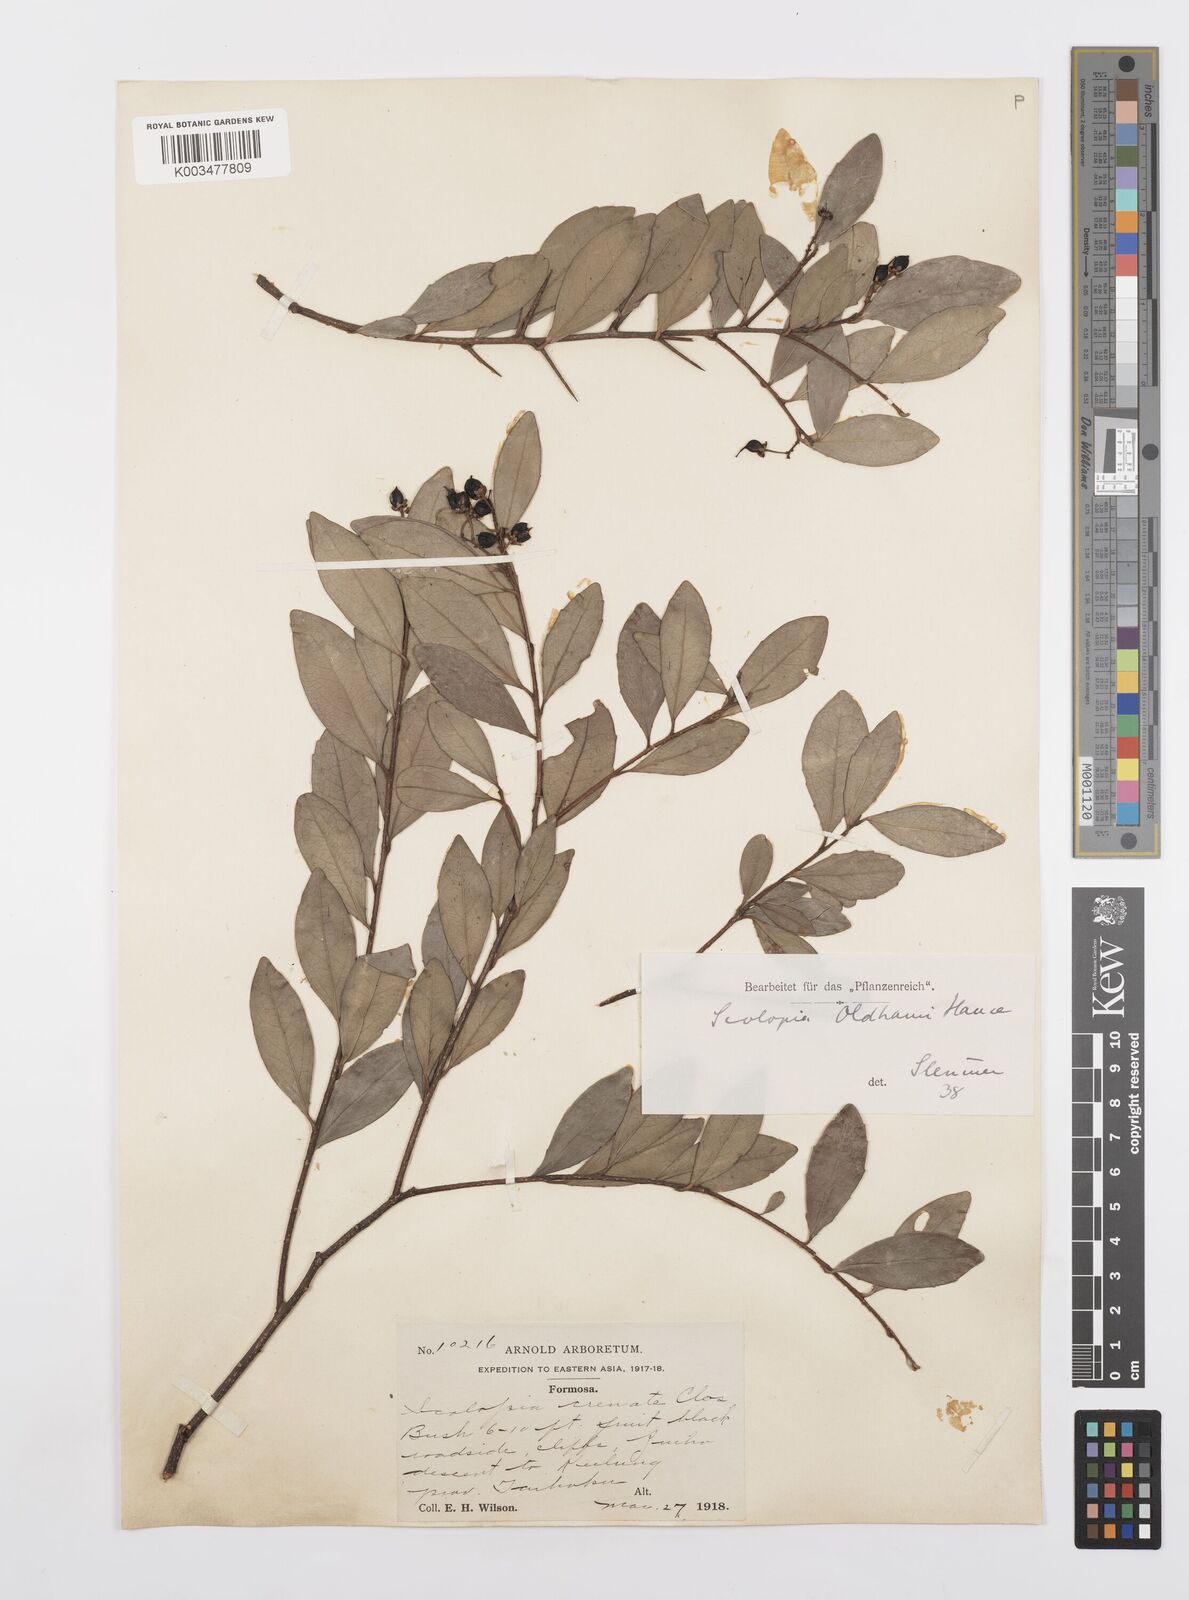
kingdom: Plantae
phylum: Tracheophyta
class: Magnoliopsida
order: Malpighiales
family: Salicaceae
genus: Scolopia
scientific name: Scolopia oldhamii
